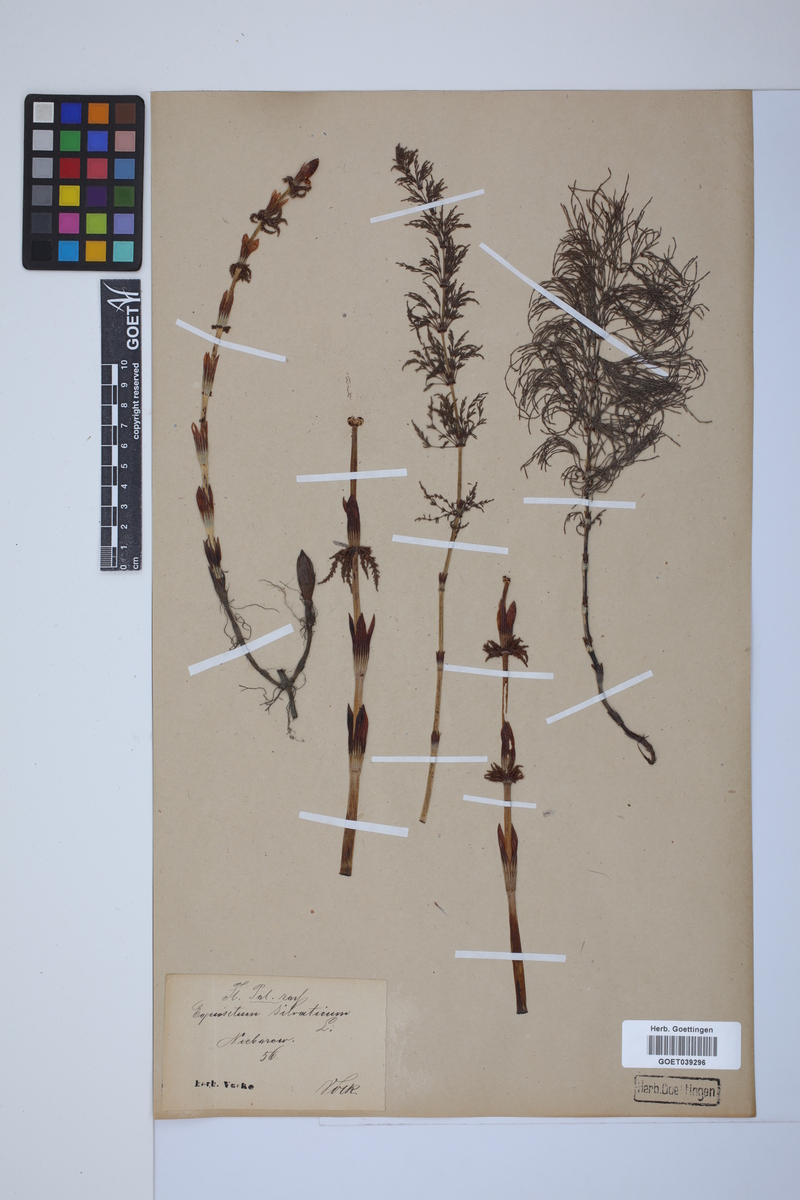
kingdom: Plantae
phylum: Tracheophyta
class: Polypodiopsida
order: Equisetales
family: Equisetaceae
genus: Equisetum
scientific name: Equisetum sylvaticum
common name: Wood horsetail
